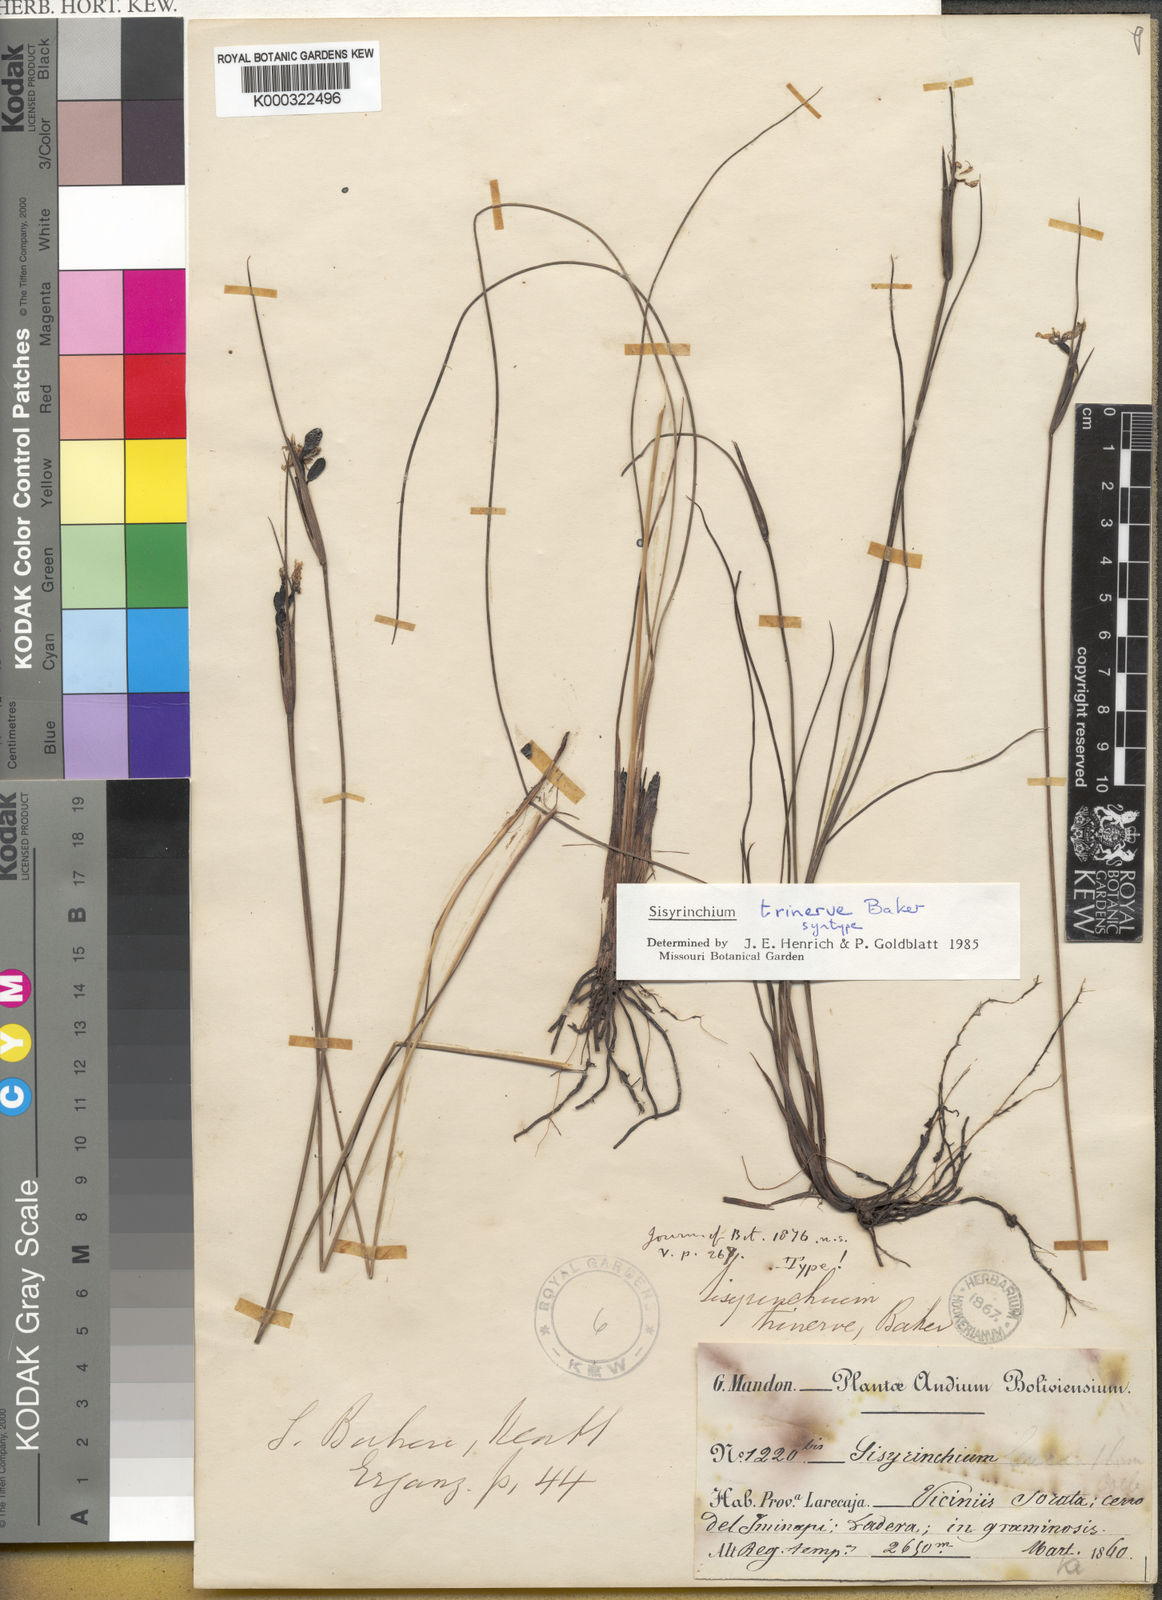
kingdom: Plantae
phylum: Tracheophyta
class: Liliopsida
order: Asparagales
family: Iridaceae
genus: Olsynium
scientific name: Olsynium trinerve
